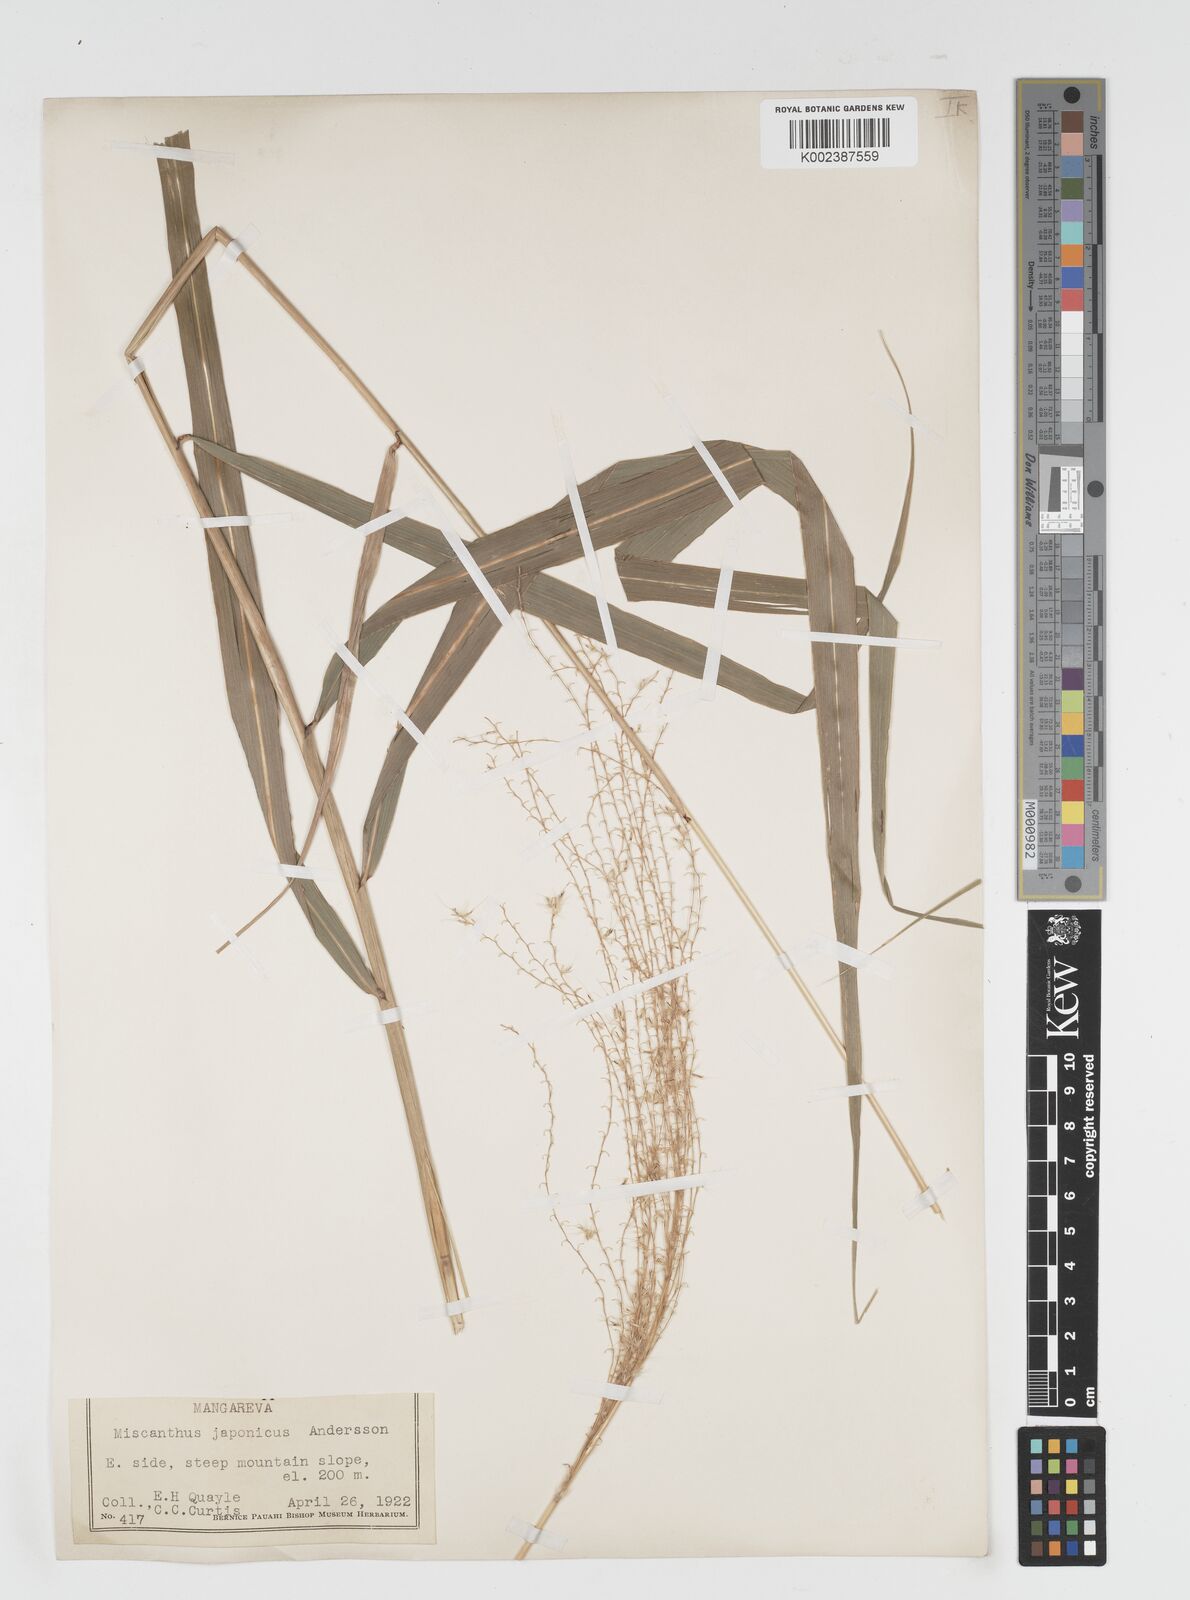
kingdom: Plantae
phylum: Tracheophyta
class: Liliopsida
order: Poales
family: Poaceae
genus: Miscanthus
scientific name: Miscanthus floridulus
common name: Pacific island silvergrass
